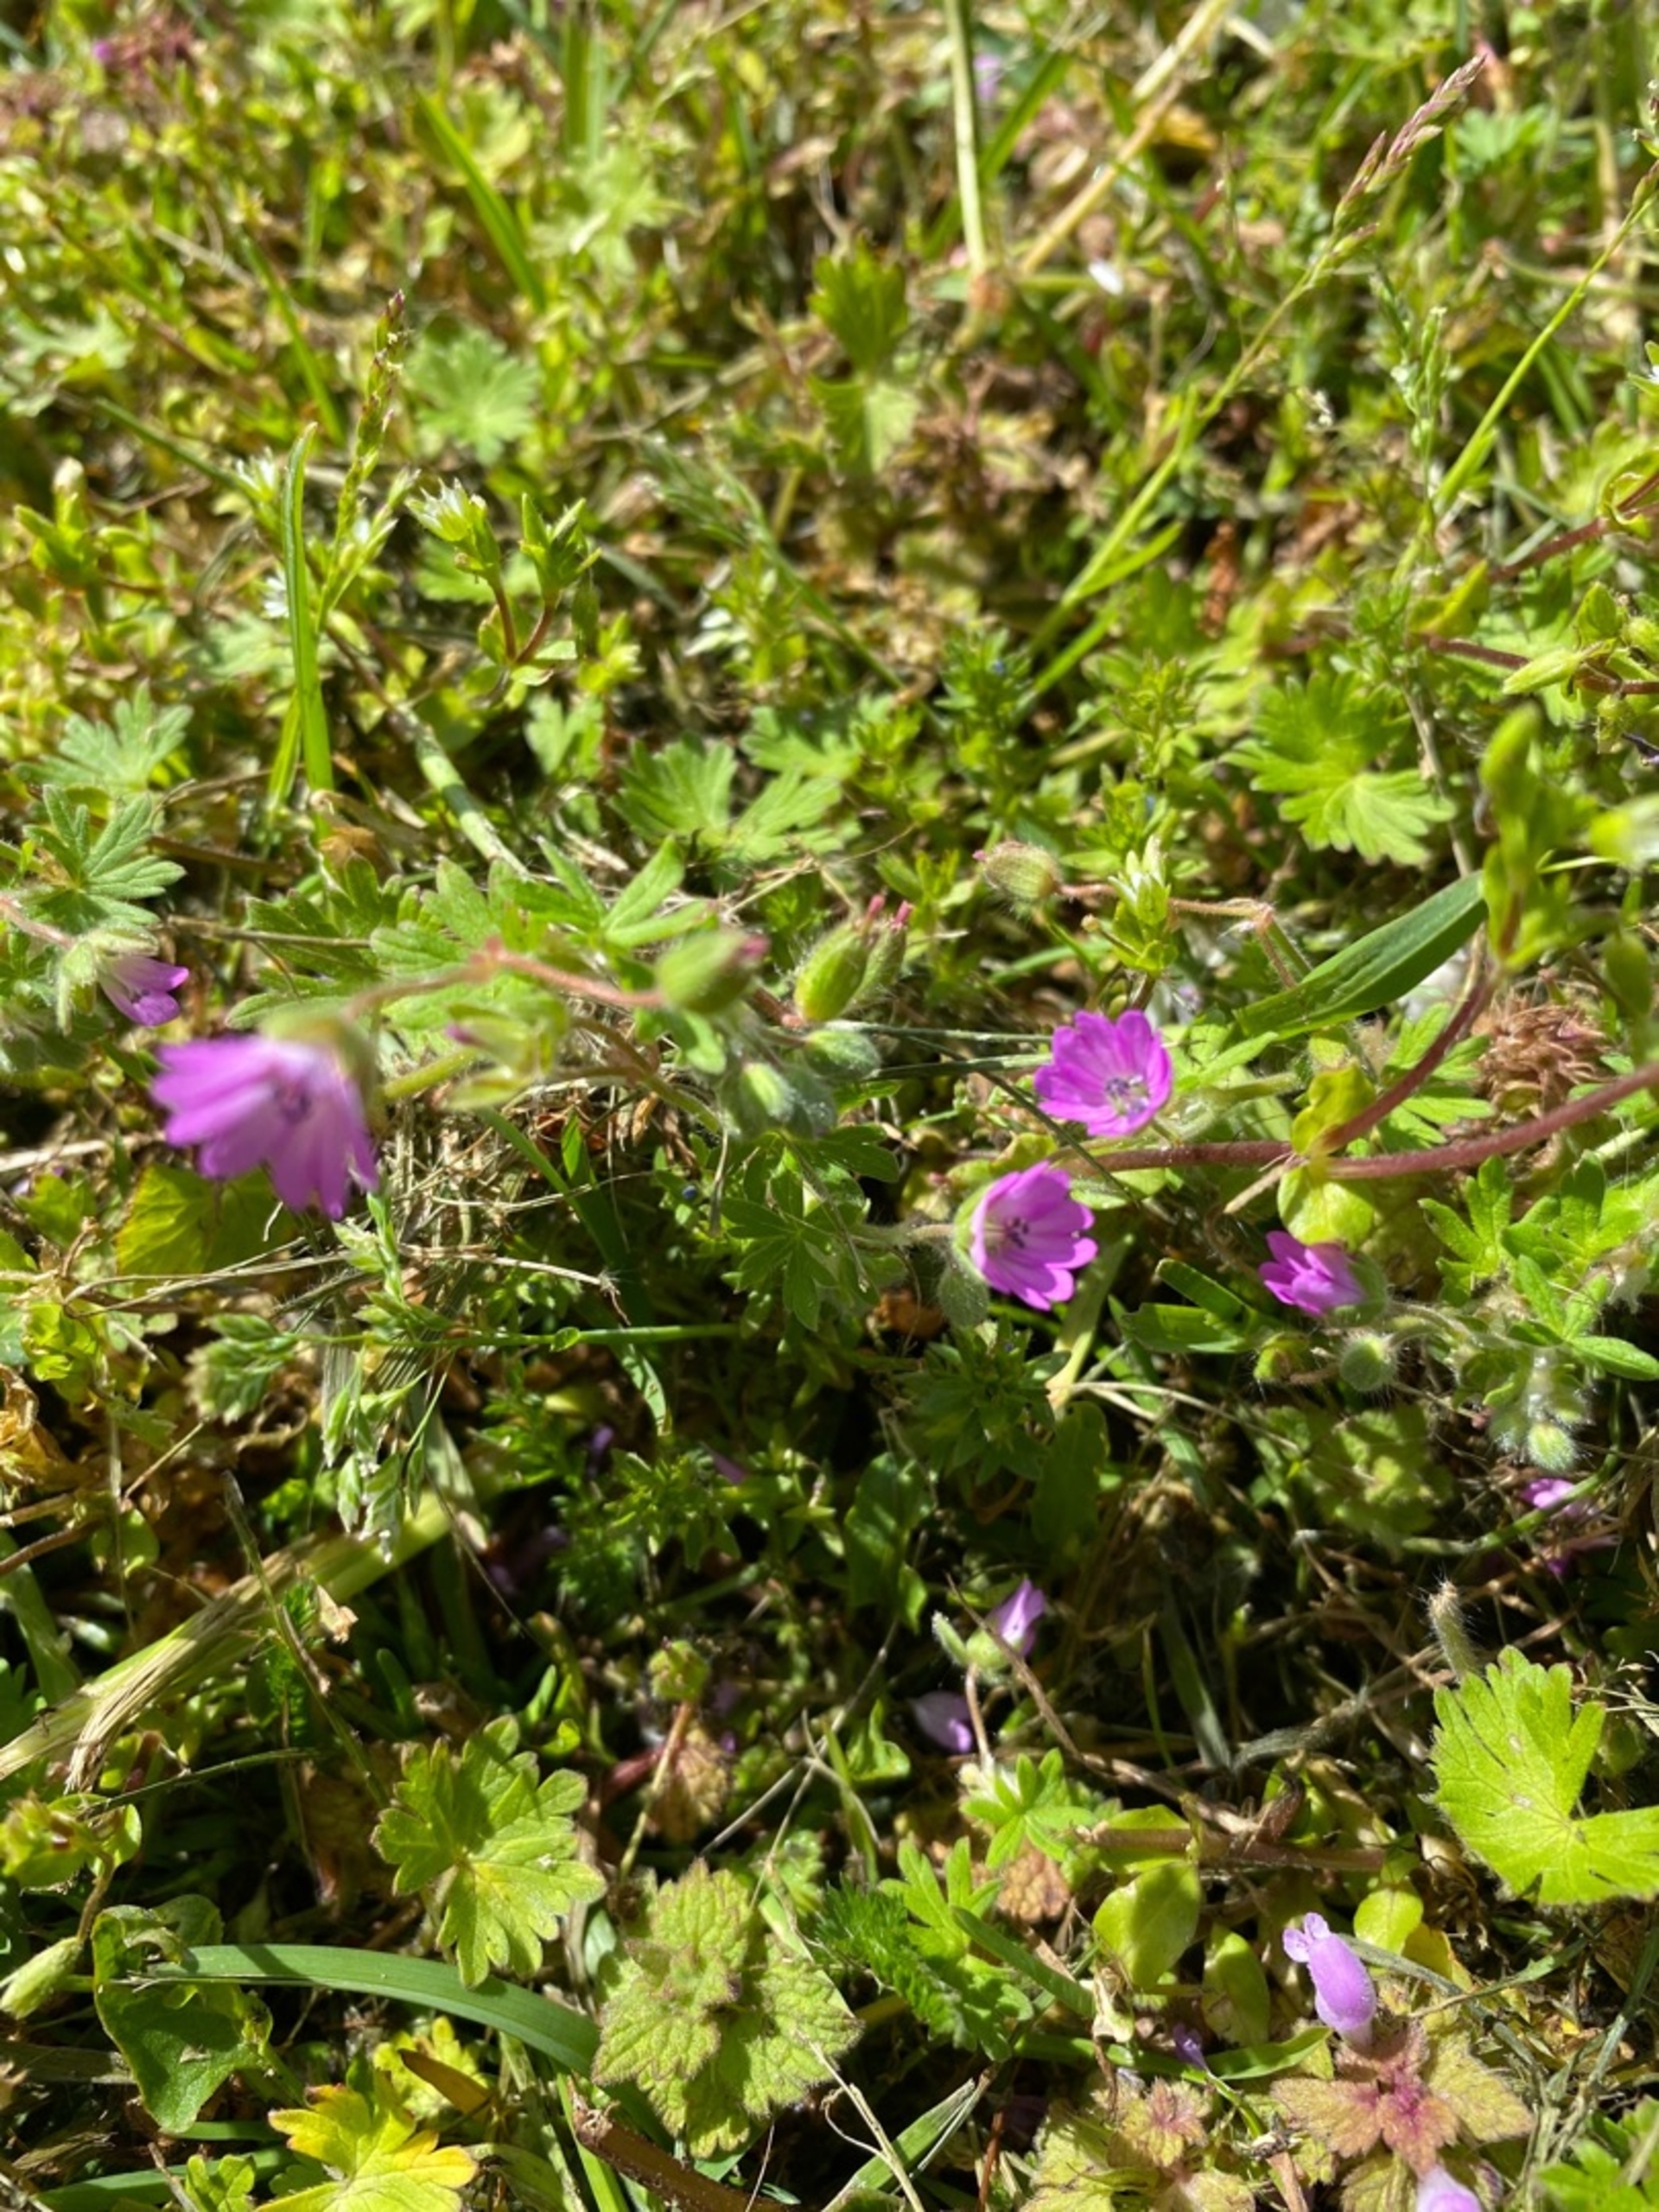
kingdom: Plantae
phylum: Tracheophyta
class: Magnoliopsida
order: Geraniales
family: Geraniaceae
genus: Geranium
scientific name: Geranium molle
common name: Blød storkenæb
